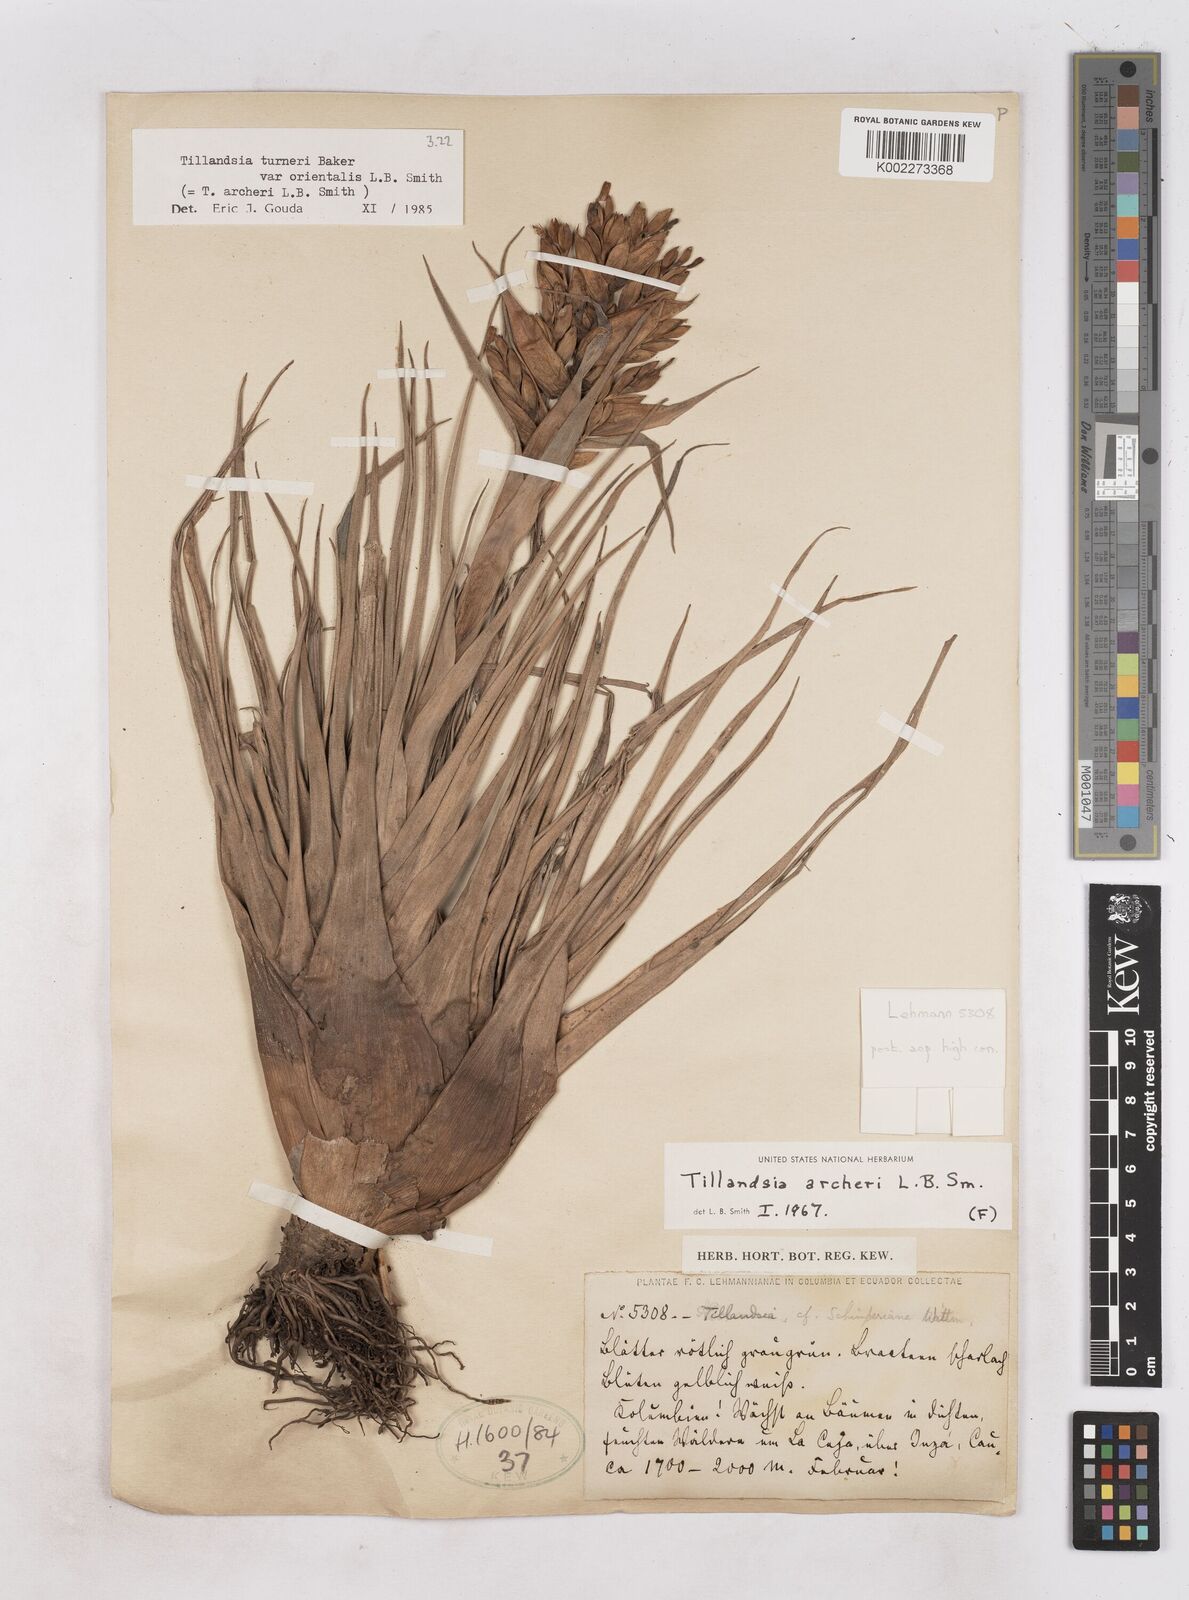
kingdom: Plantae
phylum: Tracheophyta
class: Liliopsida
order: Poales
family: Bromeliaceae
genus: Tillandsia
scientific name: Tillandsia turneri
